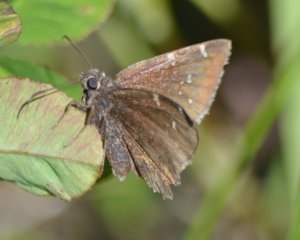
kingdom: Animalia
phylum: Arthropoda
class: Insecta
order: Lepidoptera
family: Hesperiidae
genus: Autochton
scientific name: Autochton
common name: Northern Cloudywing
